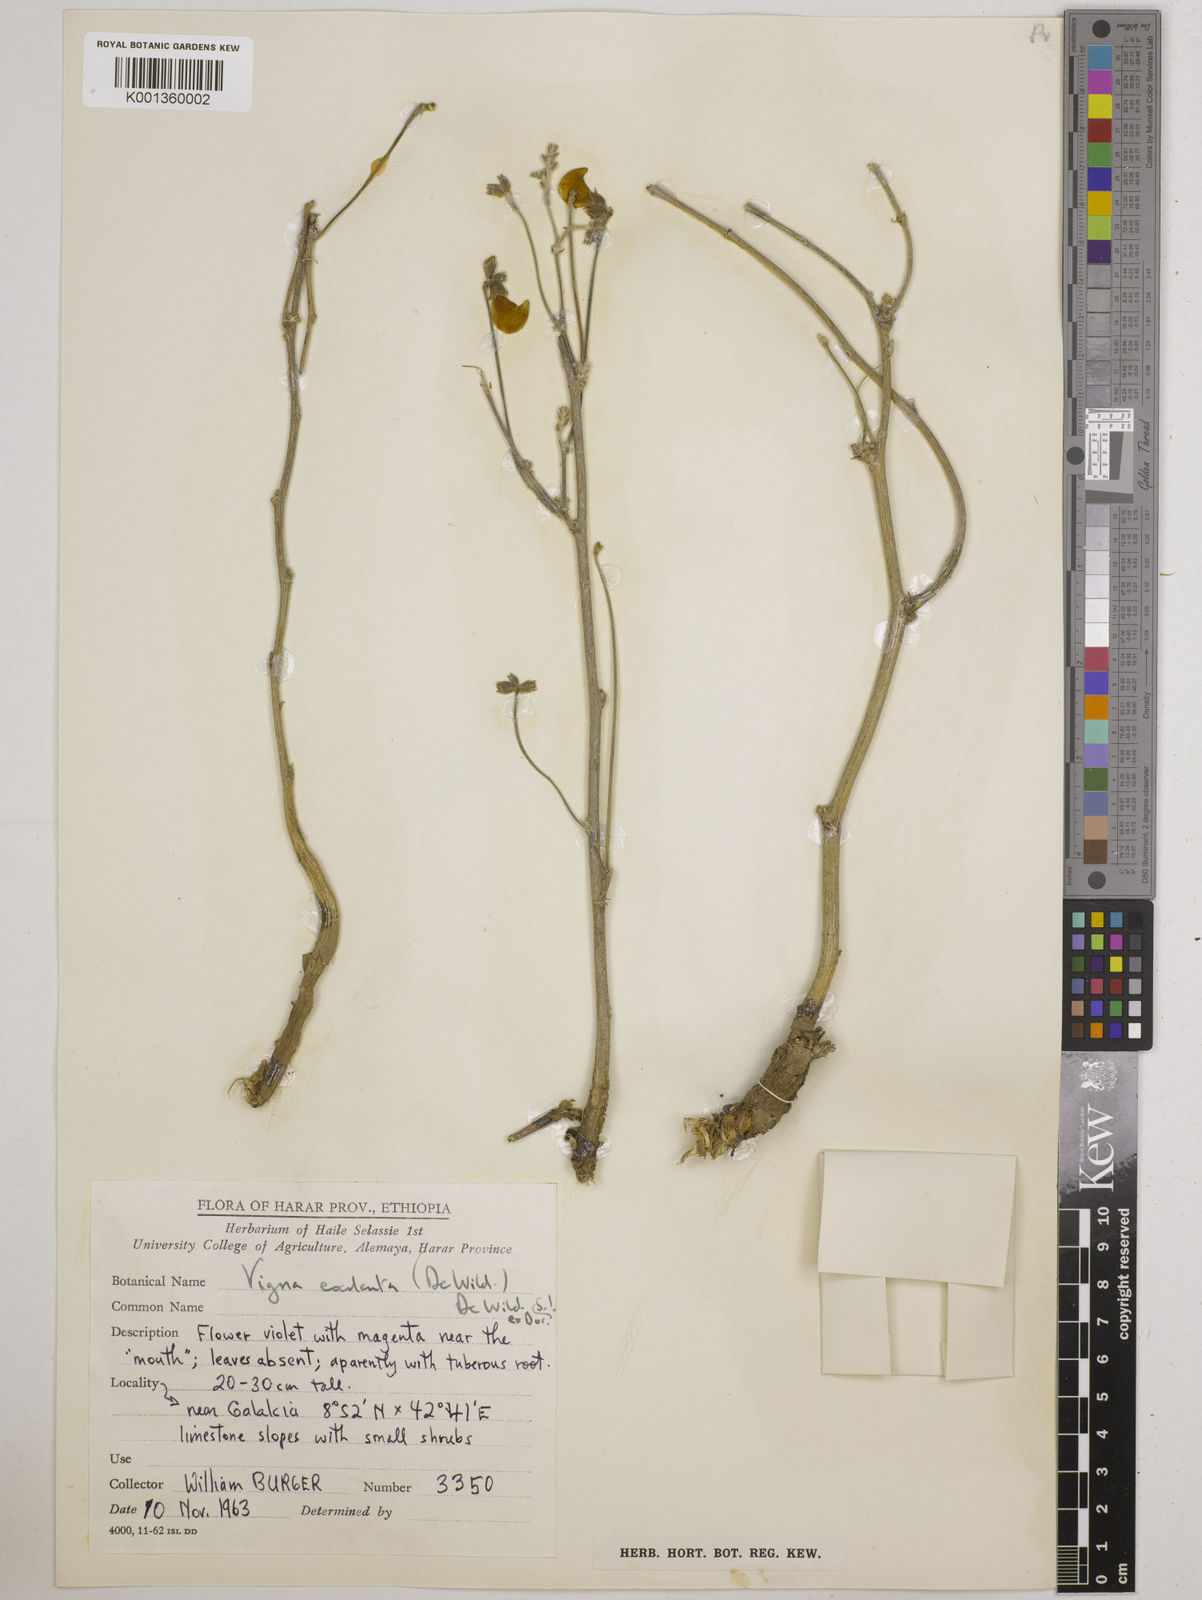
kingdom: Plantae
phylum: Tracheophyta
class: Magnoliopsida
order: Fabales
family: Fabaceae
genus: Vigna
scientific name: Vigna frutescens
